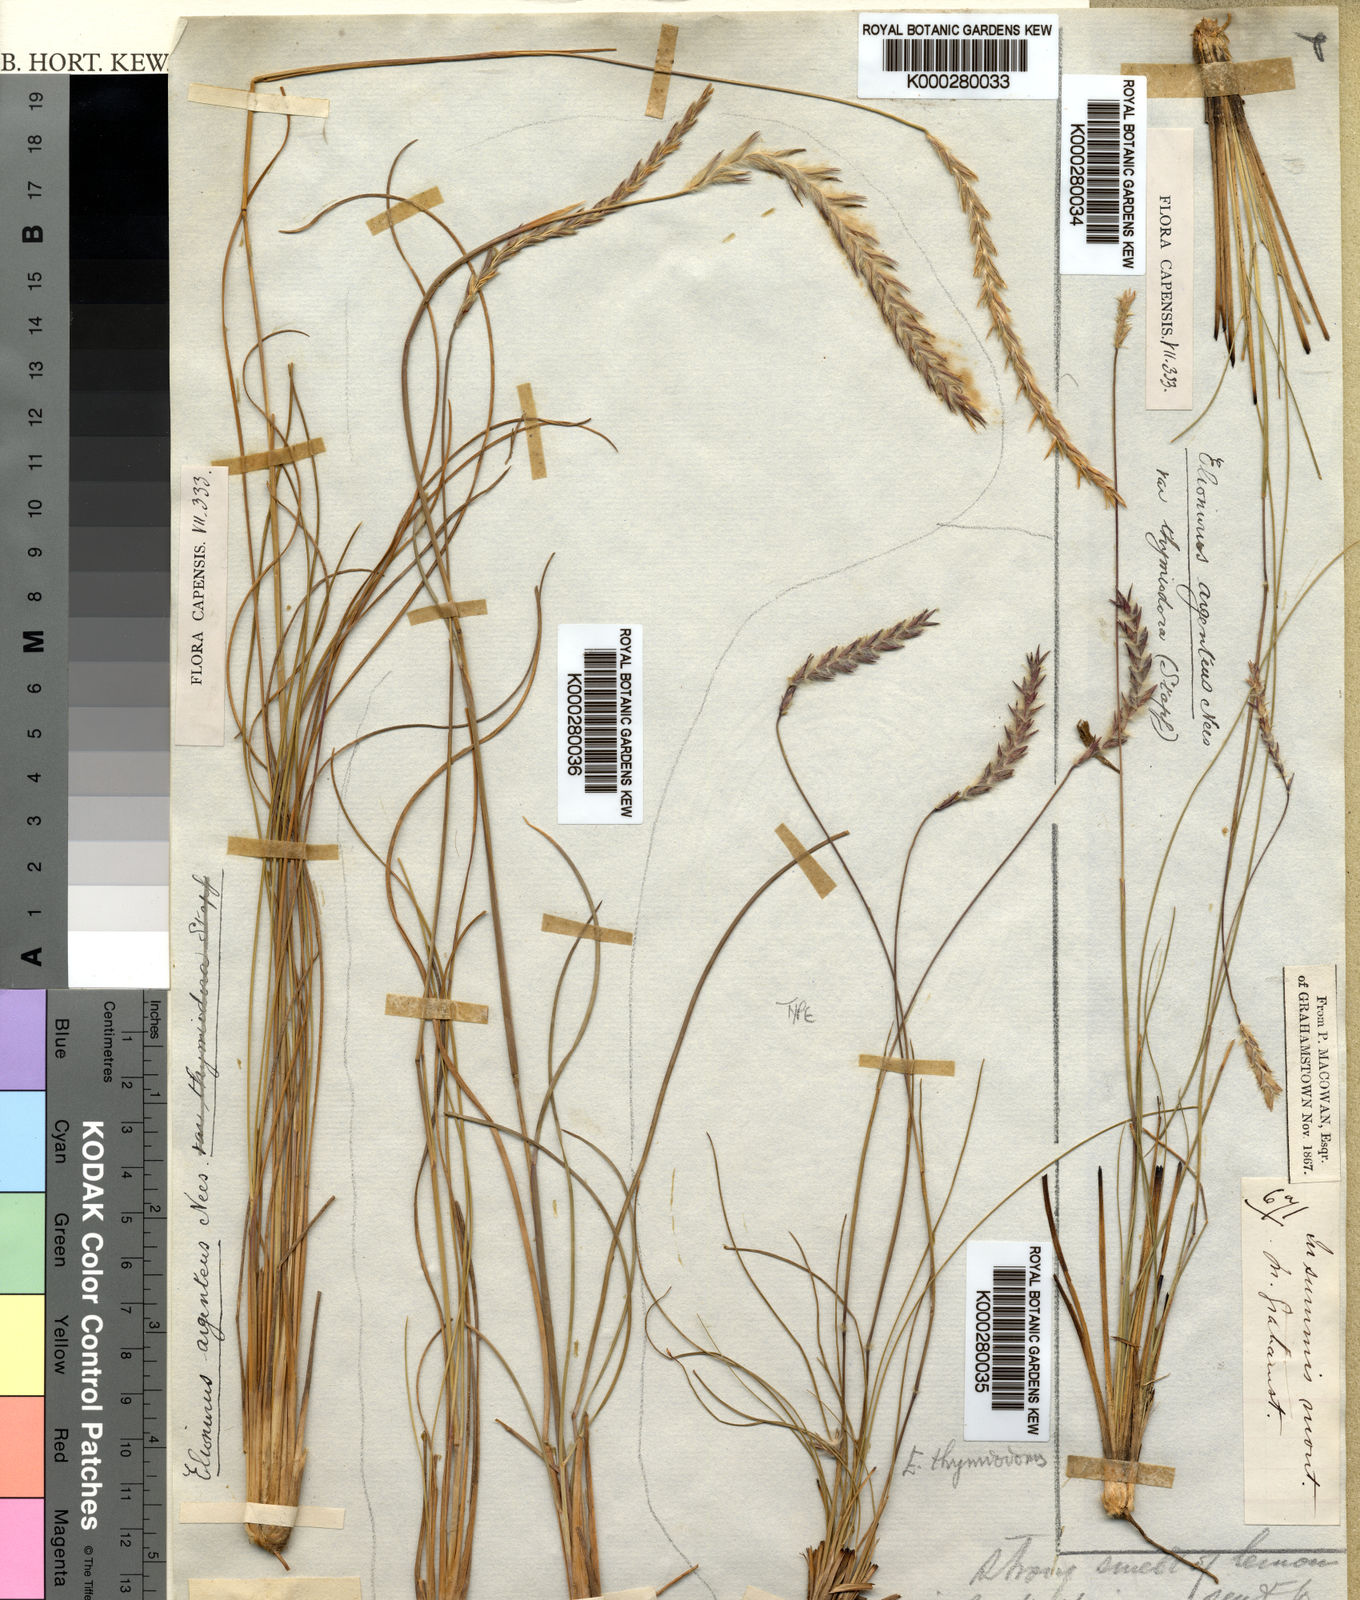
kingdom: Plantae
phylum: Tracheophyta
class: Liliopsida
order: Poales
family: Poaceae
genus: Elionurus
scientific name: Elionurus muticus
